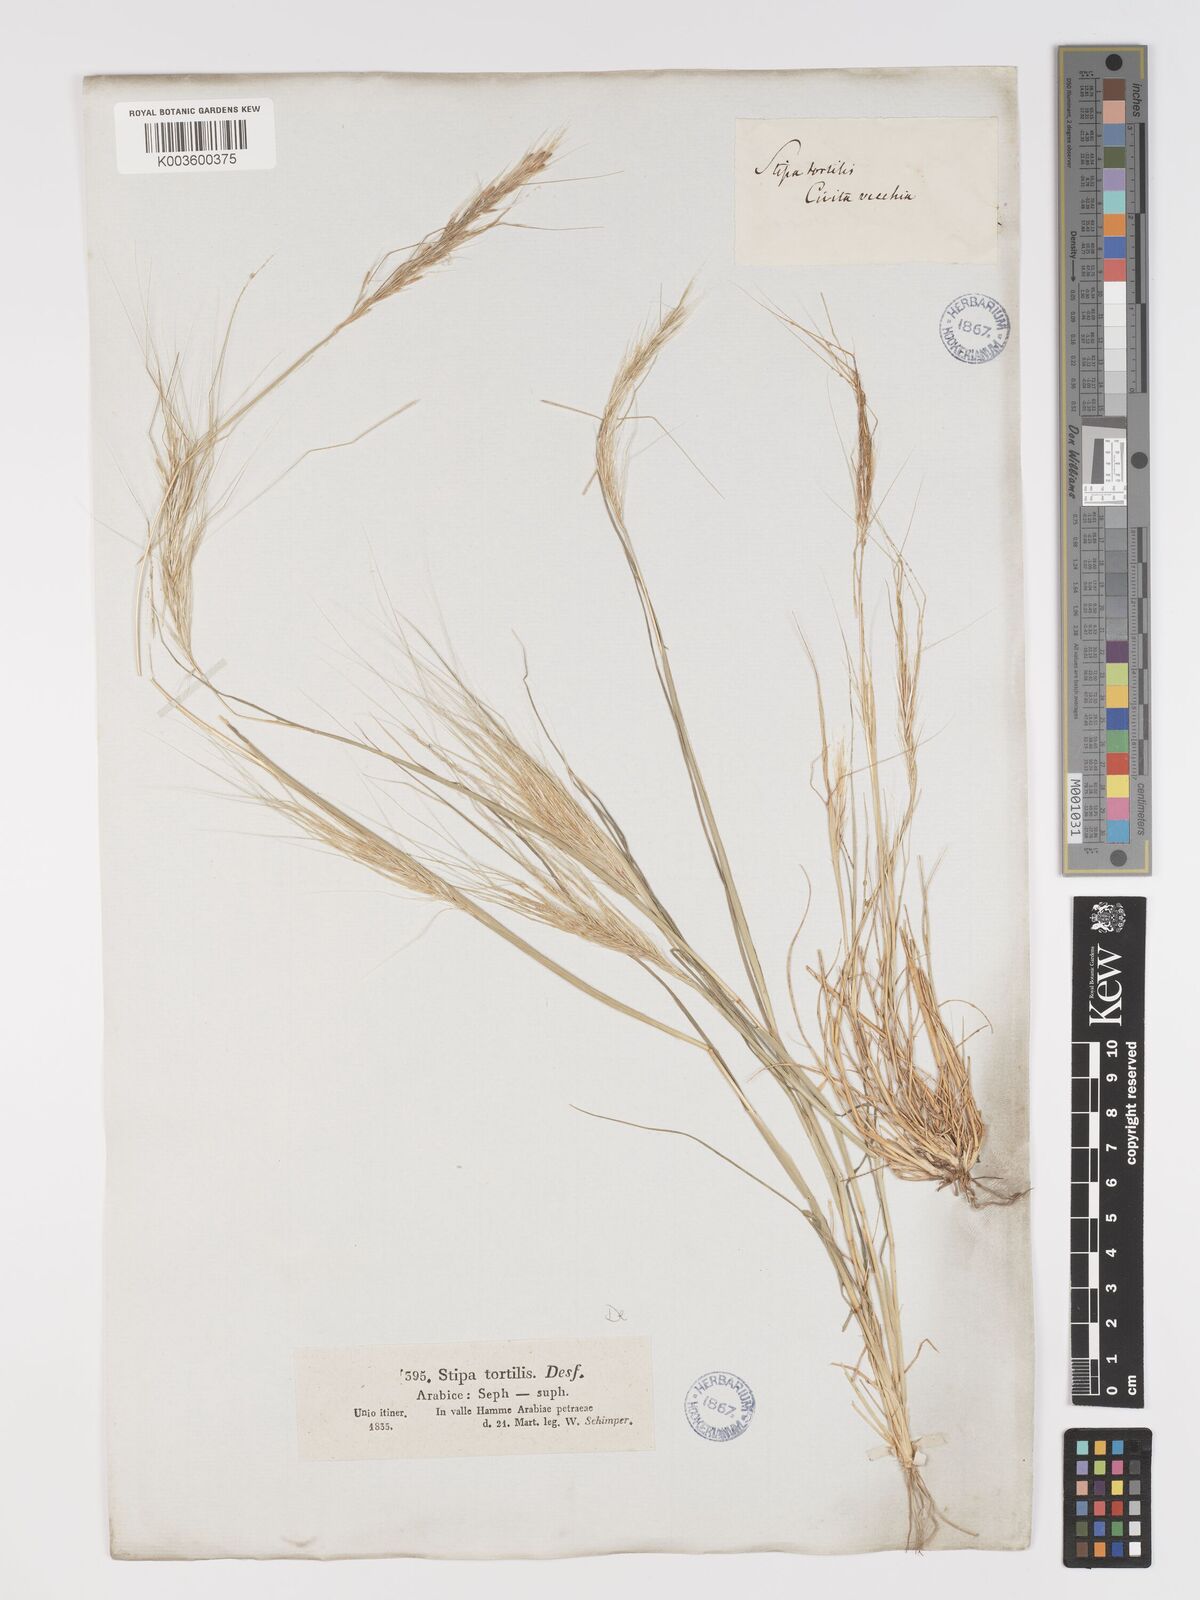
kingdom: Plantae
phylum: Tracheophyta
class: Liliopsida
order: Poales
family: Poaceae
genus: Stipellula
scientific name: Stipellula capensis
